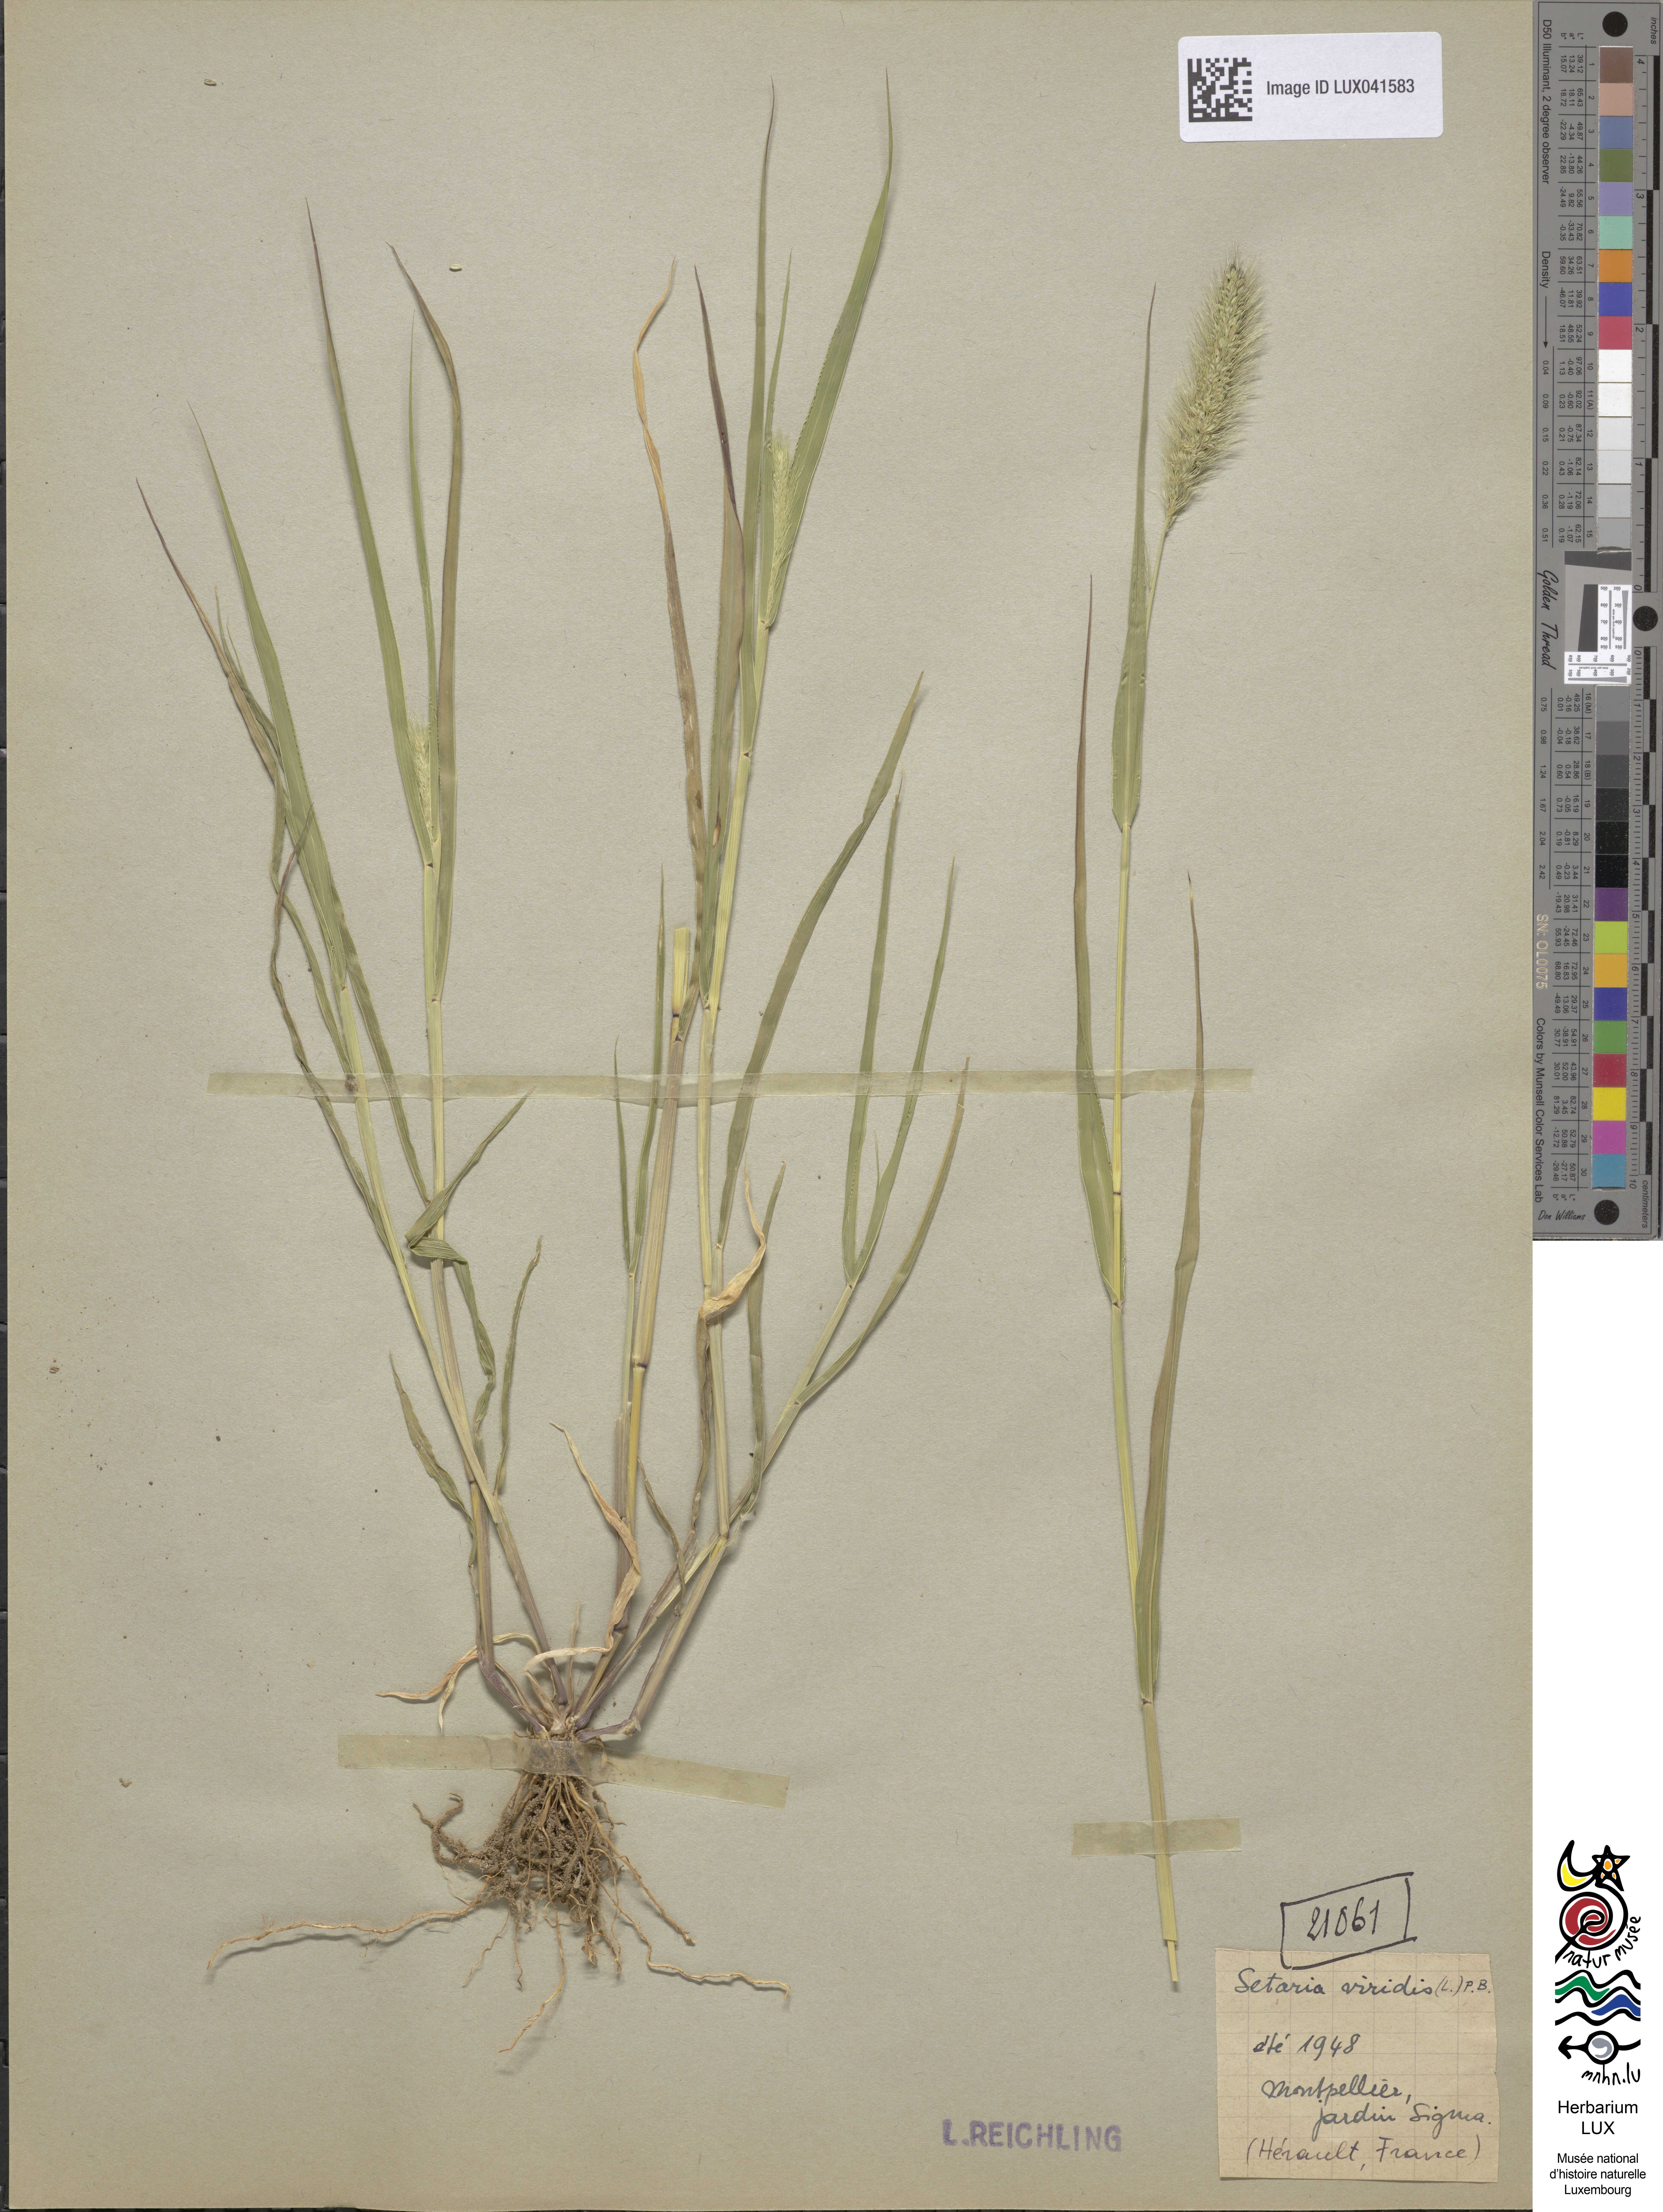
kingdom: Plantae
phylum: Tracheophyta
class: Liliopsida
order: Poales
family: Poaceae
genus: Setaria
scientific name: Setaria viridis
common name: Green bristlegrass
